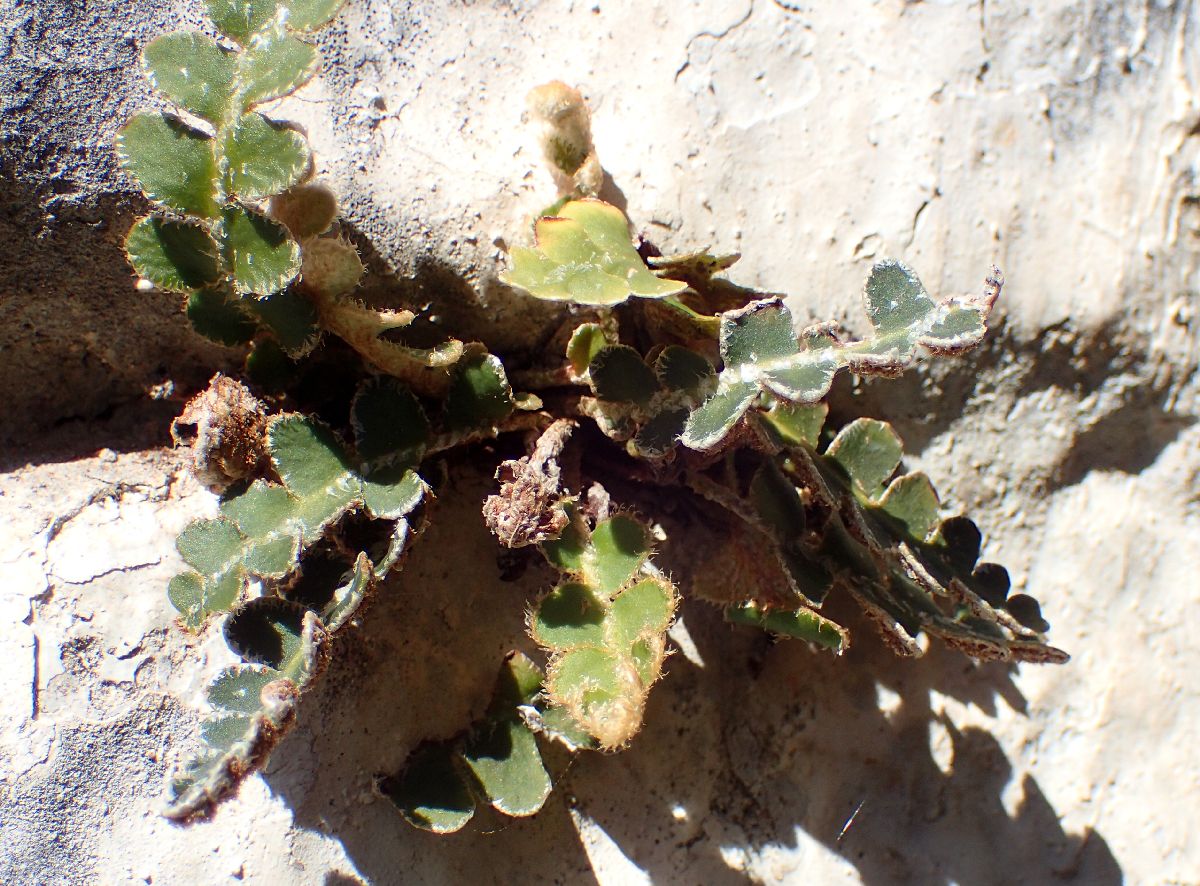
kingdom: Plantae
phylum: Tracheophyta
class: Polypodiopsida
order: Polypodiales
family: Aspleniaceae
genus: Asplenium
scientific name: Asplenium ceterach
